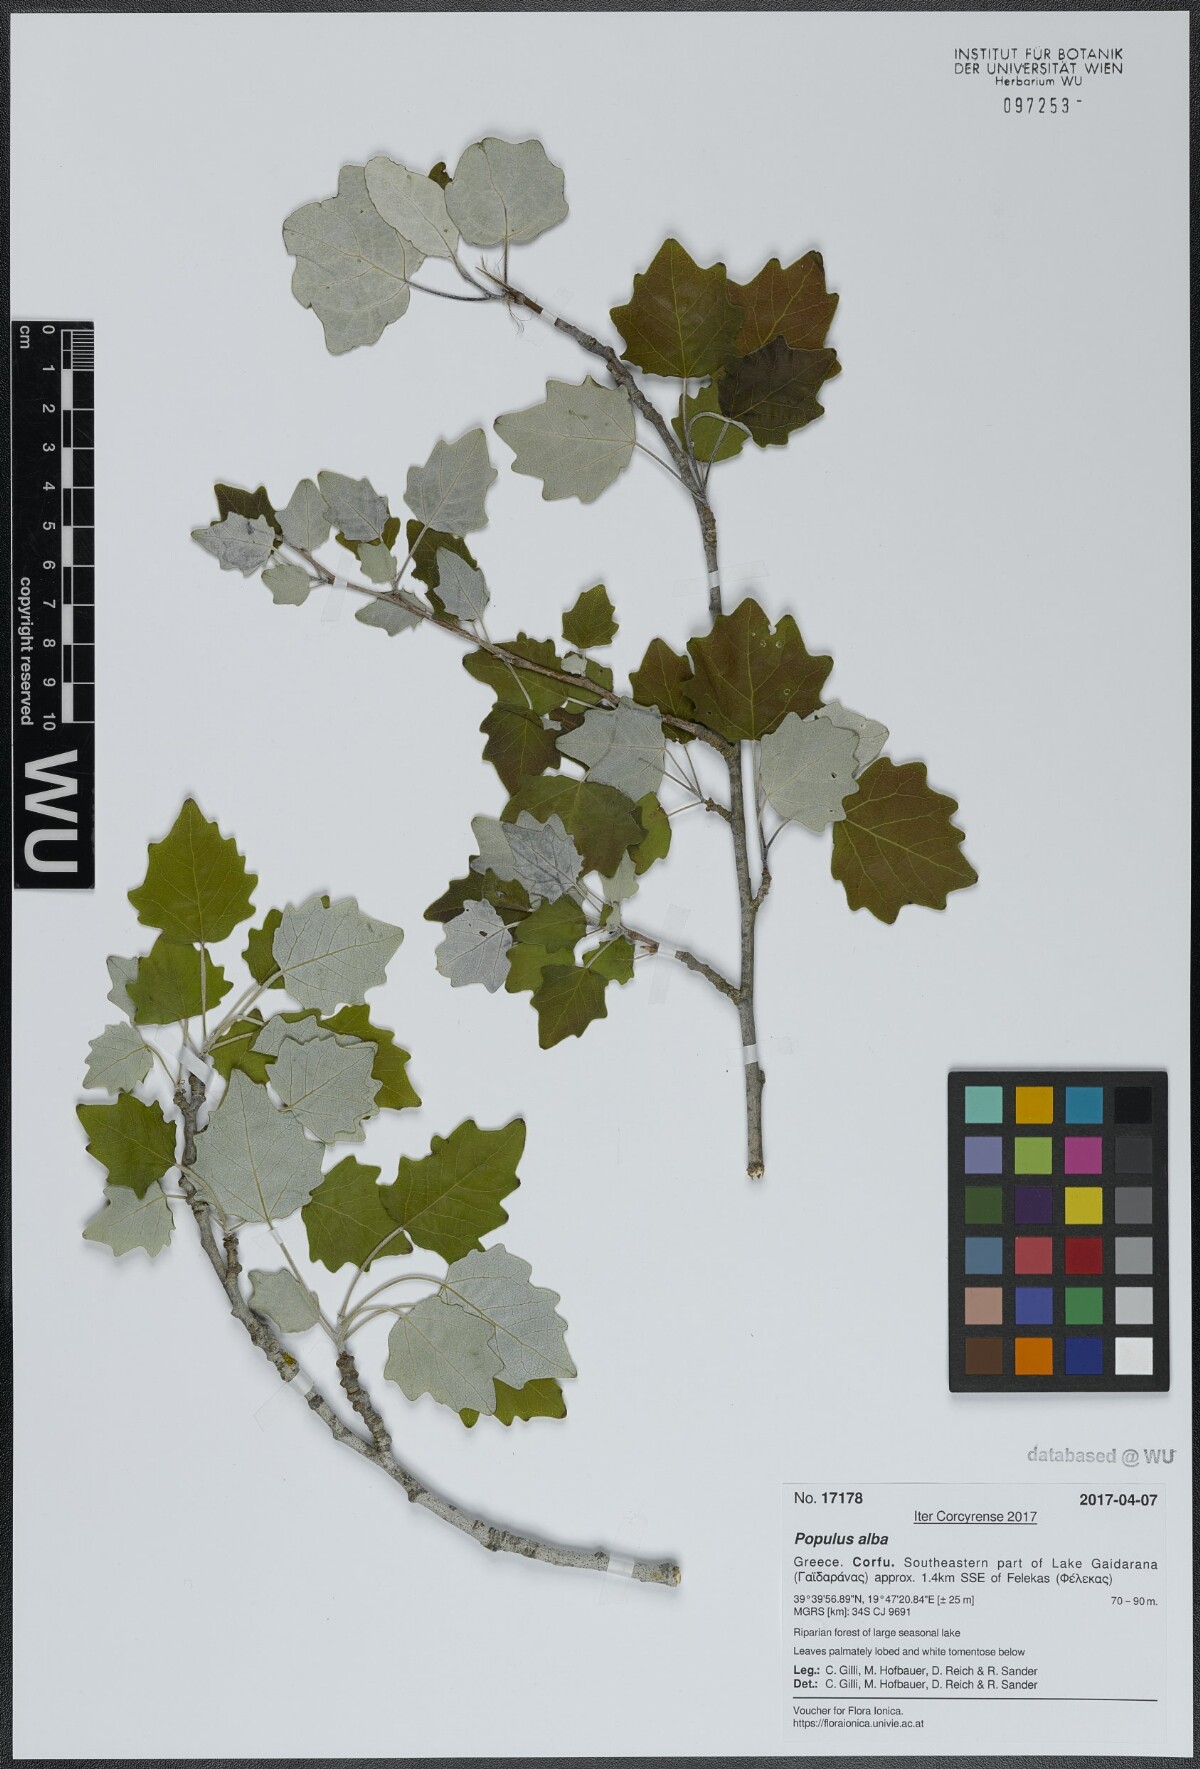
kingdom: Plantae
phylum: Tracheophyta
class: Magnoliopsida
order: Malpighiales
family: Salicaceae
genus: Populus
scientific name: Populus alba
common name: White poplar
